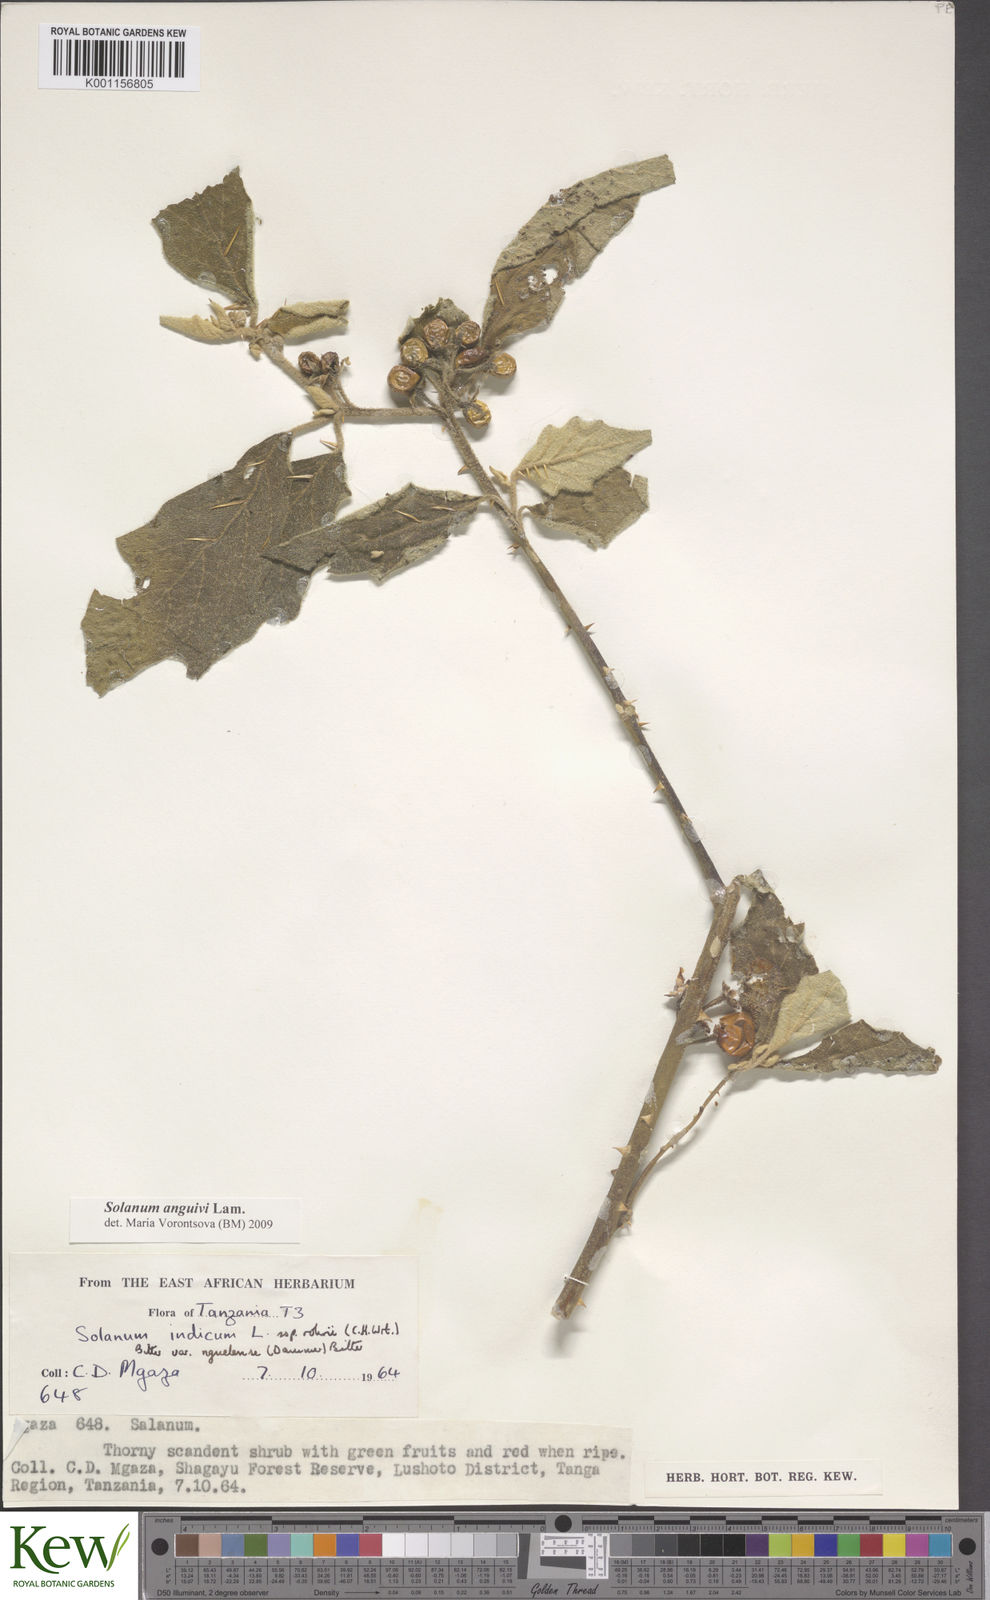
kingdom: Plantae
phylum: Tracheophyta
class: Magnoliopsida
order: Solanales
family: Solanaceae
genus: Solanum
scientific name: Solanum anguivi
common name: Forest bitterberry
